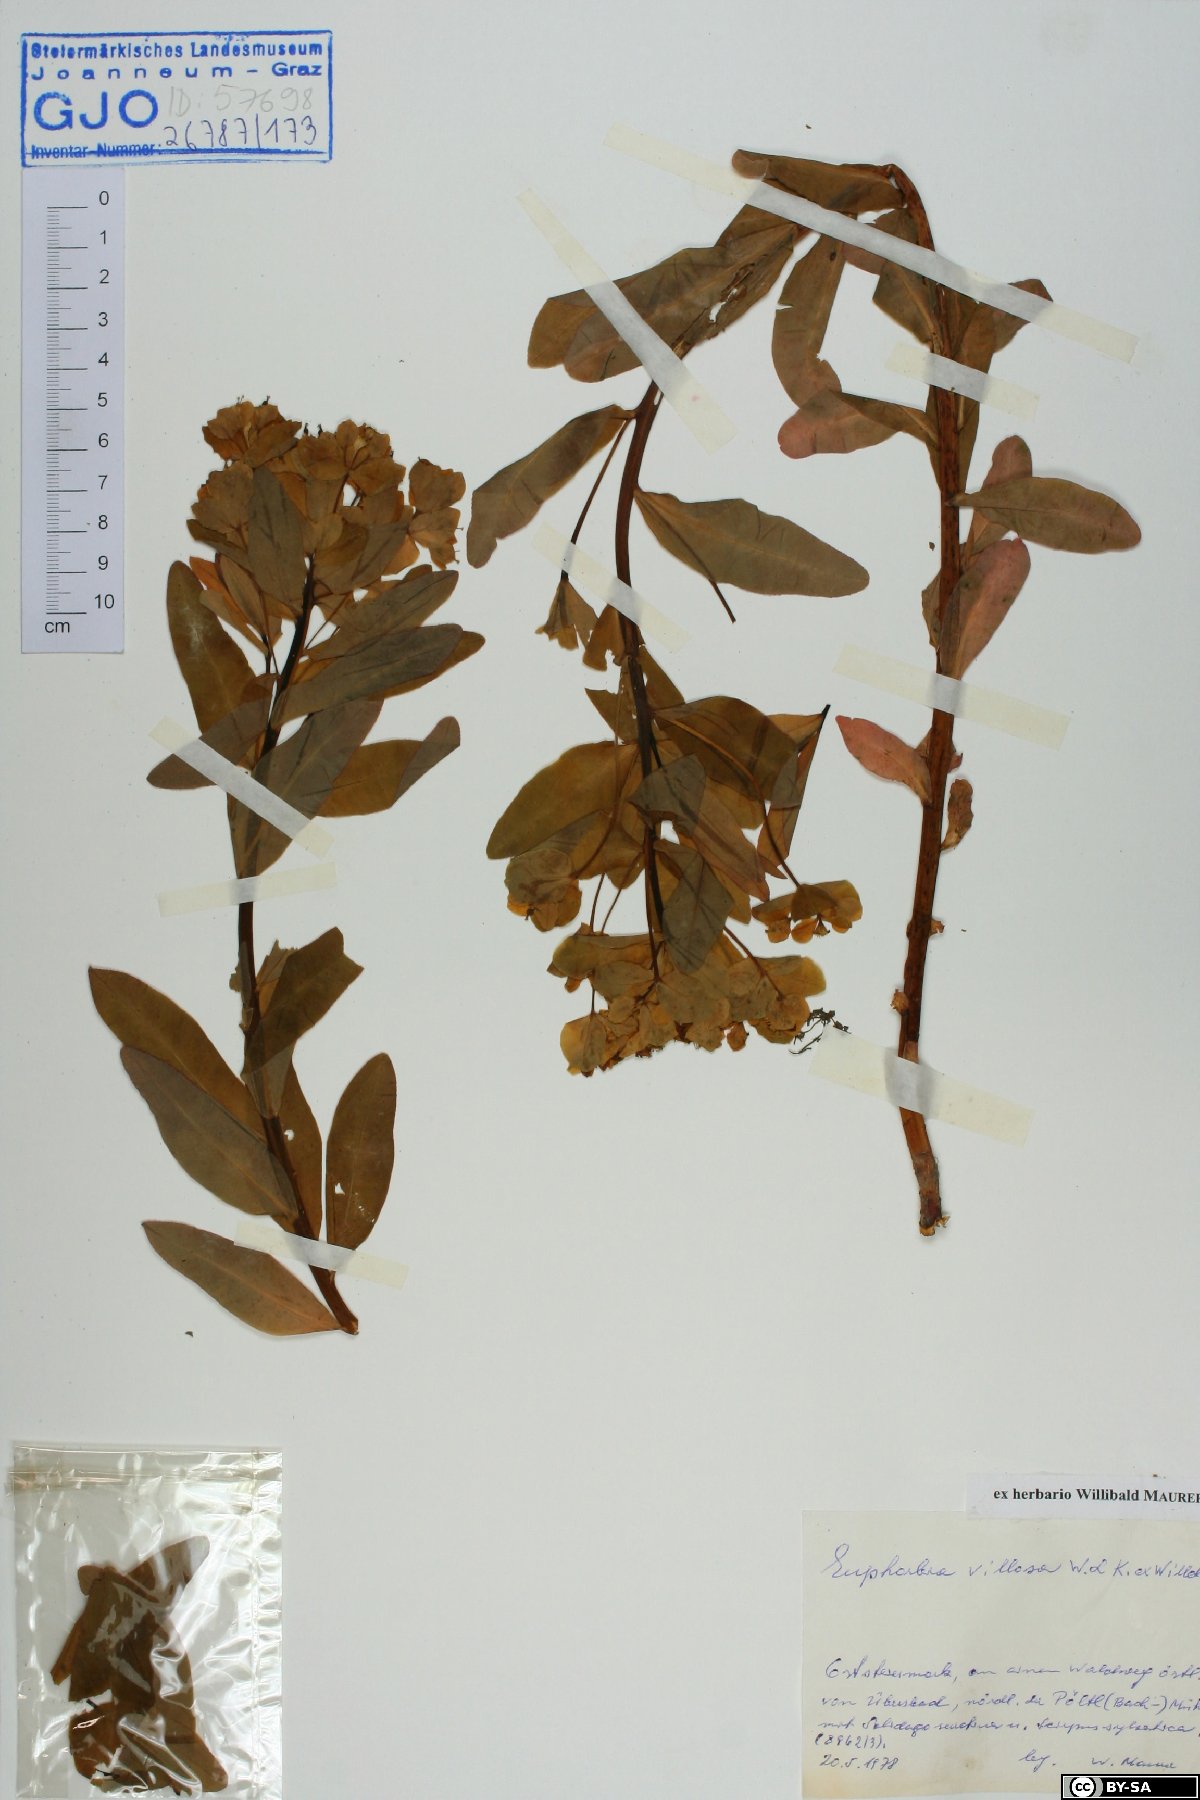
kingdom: Plantae
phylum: Tracheophyta
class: Magnoliopsida
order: Malpighiales
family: Euphorbiaceae
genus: Euphorbia
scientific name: Euphorbia illirica
